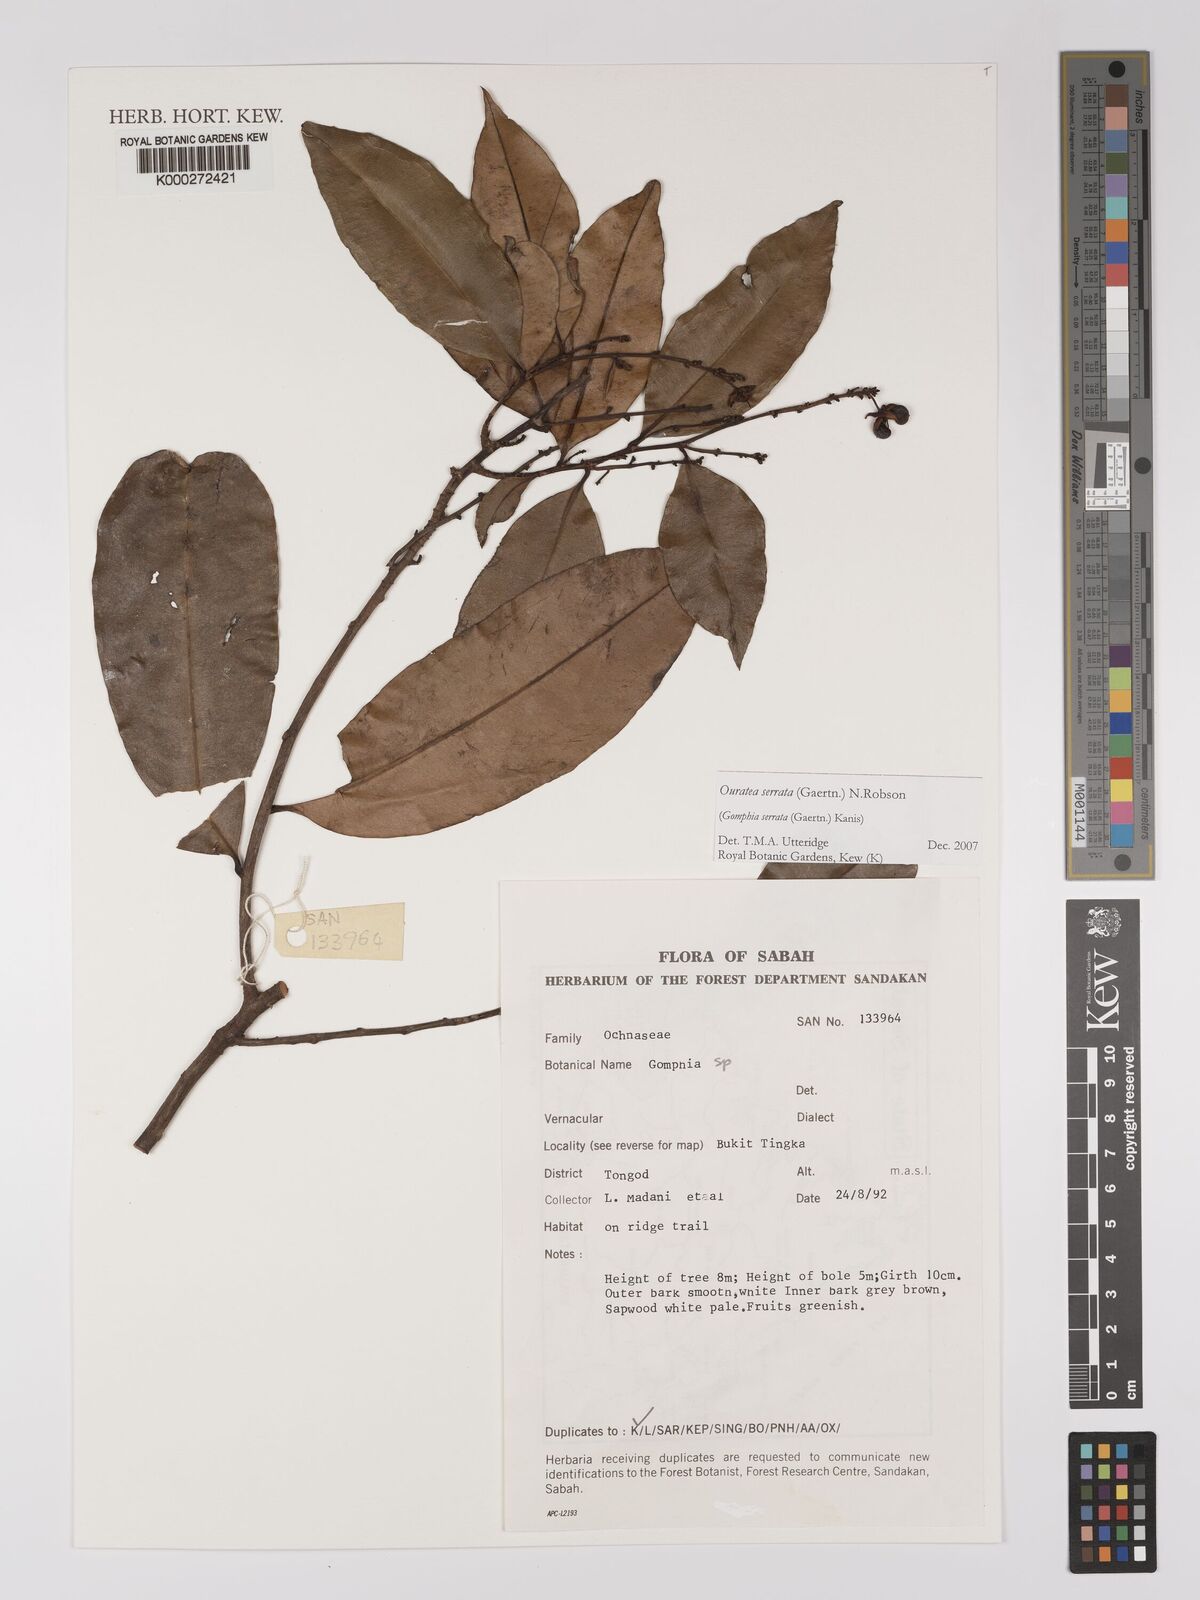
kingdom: Plantae
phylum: Tracheophyta
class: Magnoliopsida
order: Malpighiales
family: Ochnaceae
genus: Gomphia
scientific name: Gomphia serrata
